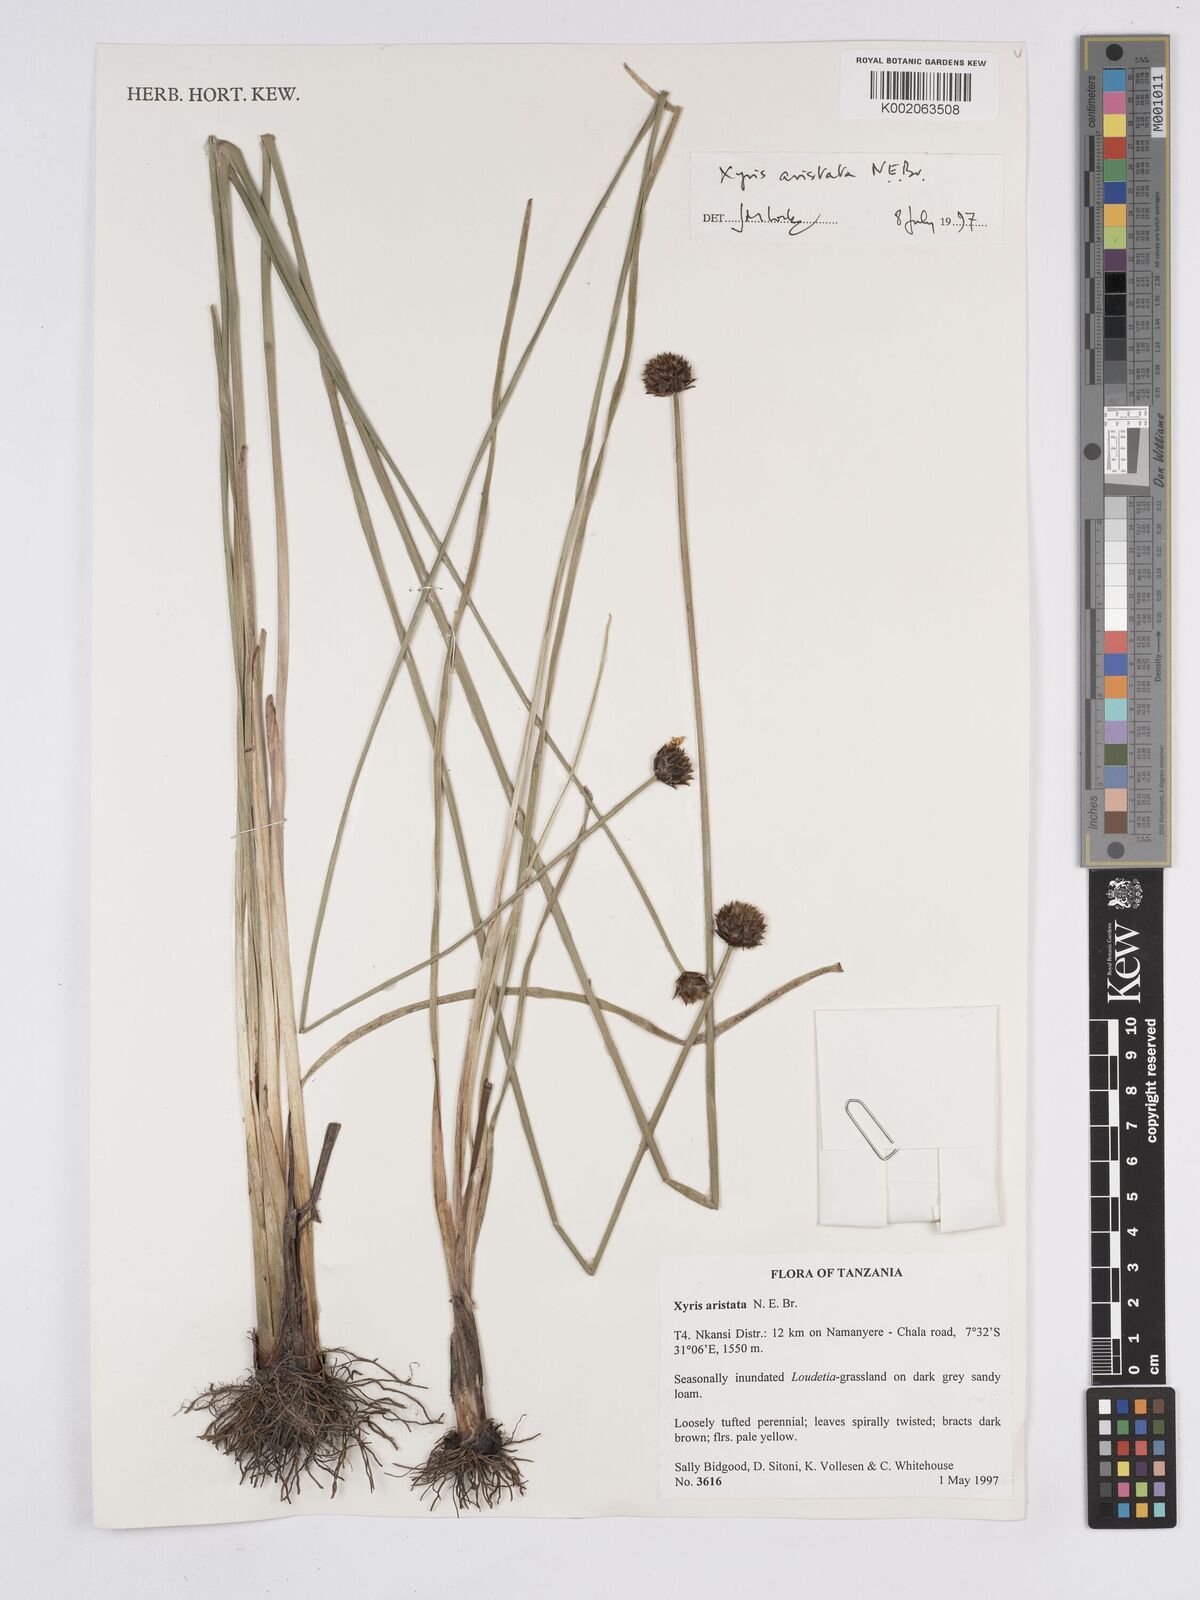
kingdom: Plantae
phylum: Tracheophyta
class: Liliopsida
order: Poales
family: Xyridaceae
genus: Xyris
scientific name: Xyris aristata
